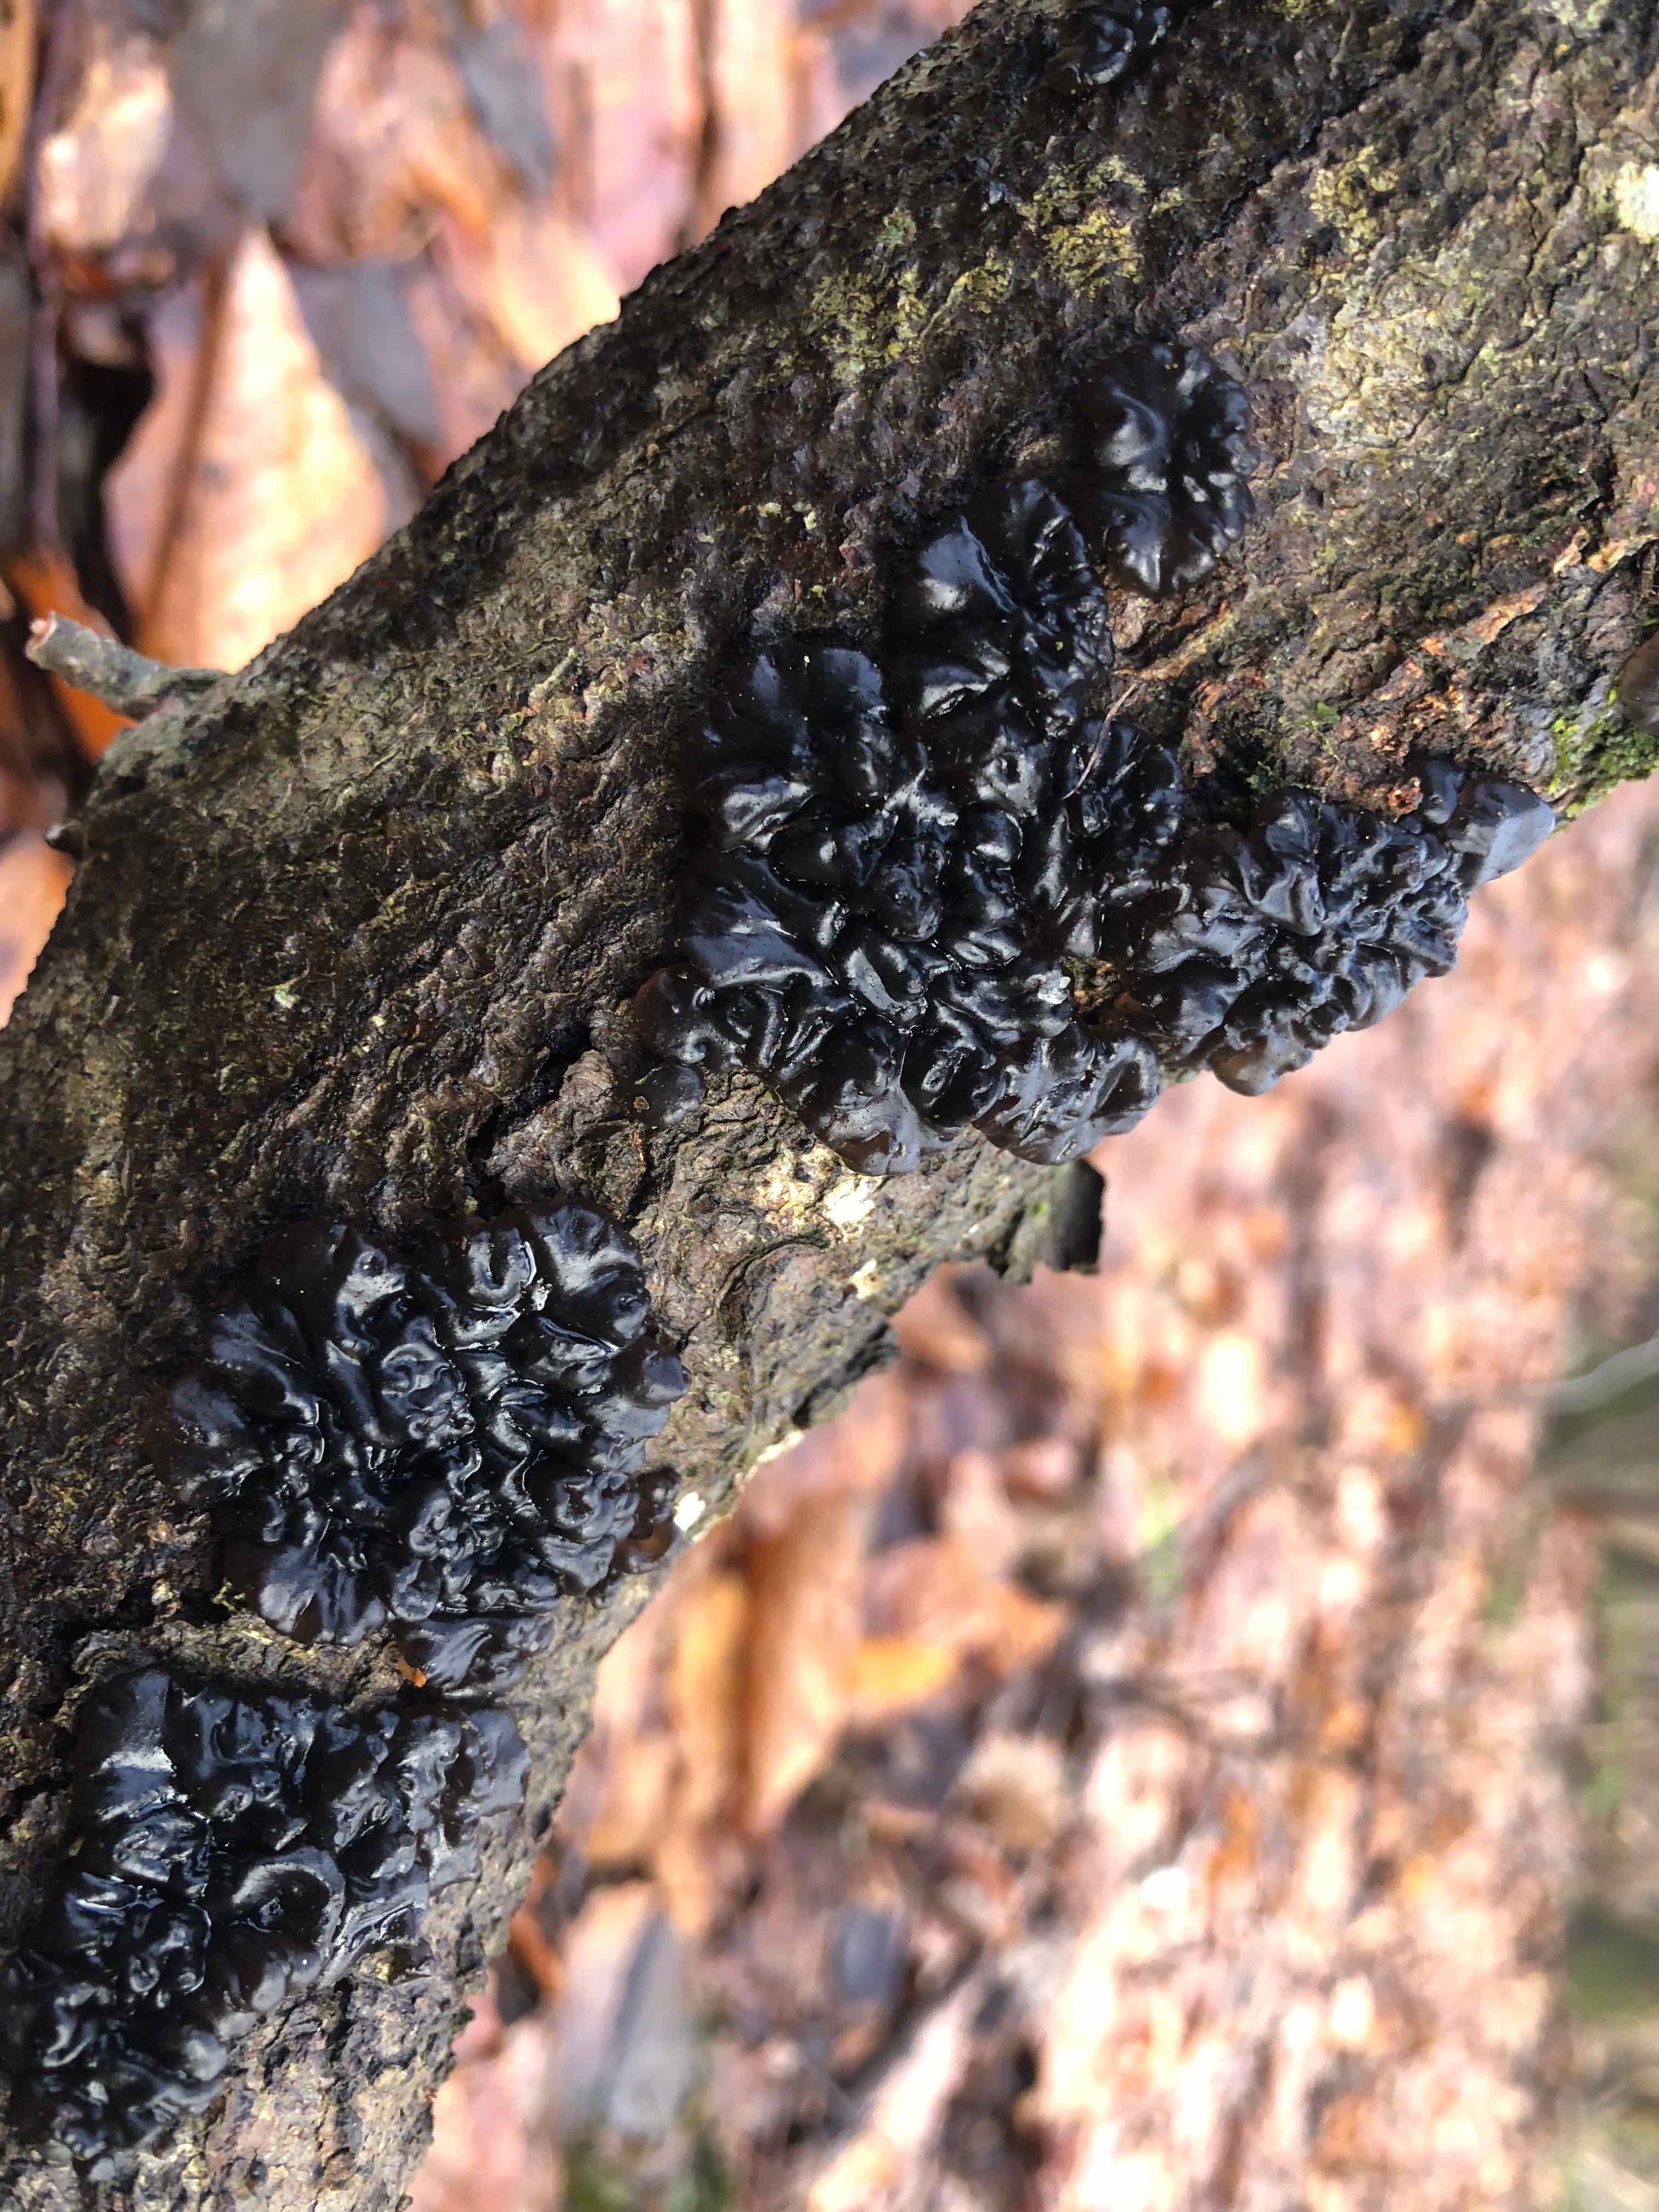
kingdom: Fungi
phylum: Basidiomycota
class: Agaricomycetes
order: Auriculariales
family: Auriculariaceae
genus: Exidia
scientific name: Exidia nigricans
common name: almindelig bævretop
